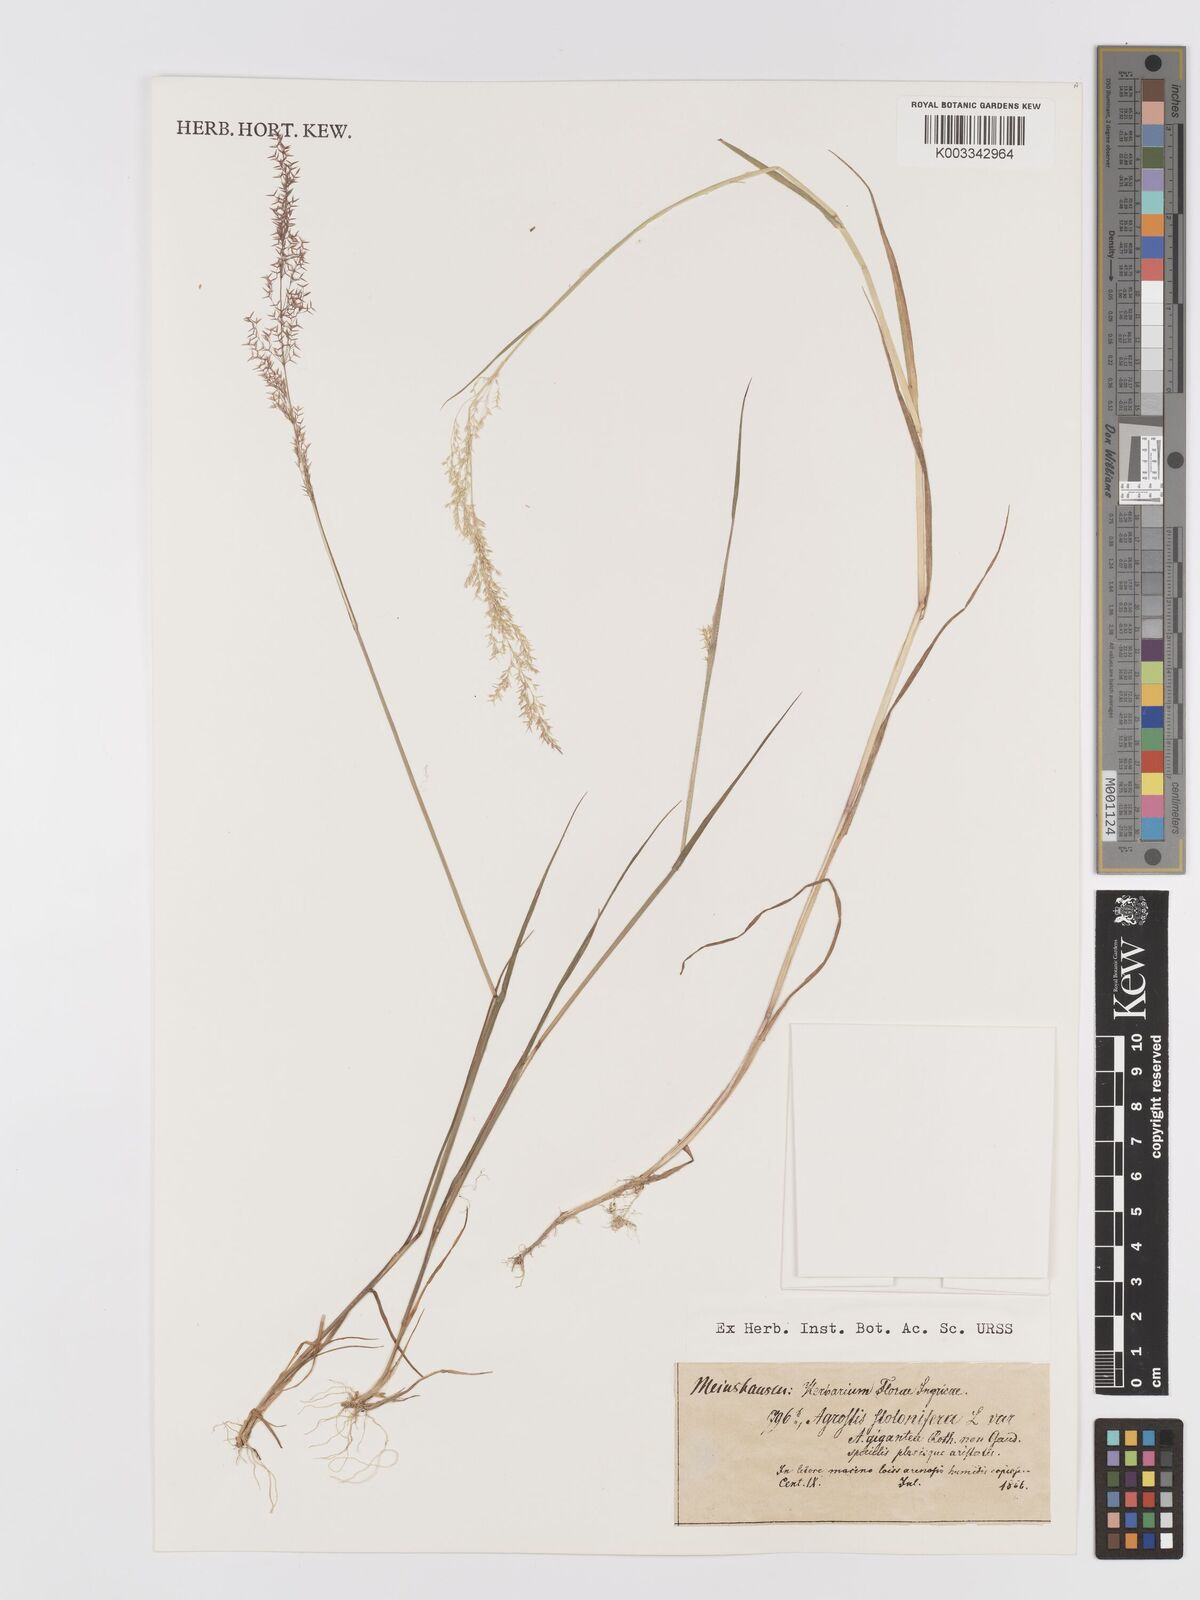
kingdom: Plantae
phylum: Tracheophyta
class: Liliopsida
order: Poales
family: Poaceae
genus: Agrostis
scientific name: Agrostis stolonifera
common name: Creeping bentgrass
